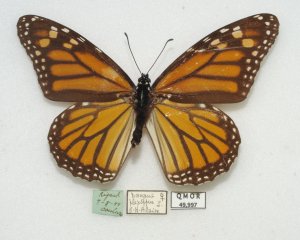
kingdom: Animalia
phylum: Arthropoda
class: Insecta
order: Lepidoptera
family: Nymphalidae
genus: Danaus
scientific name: Danaus plexippus
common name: Monarch
